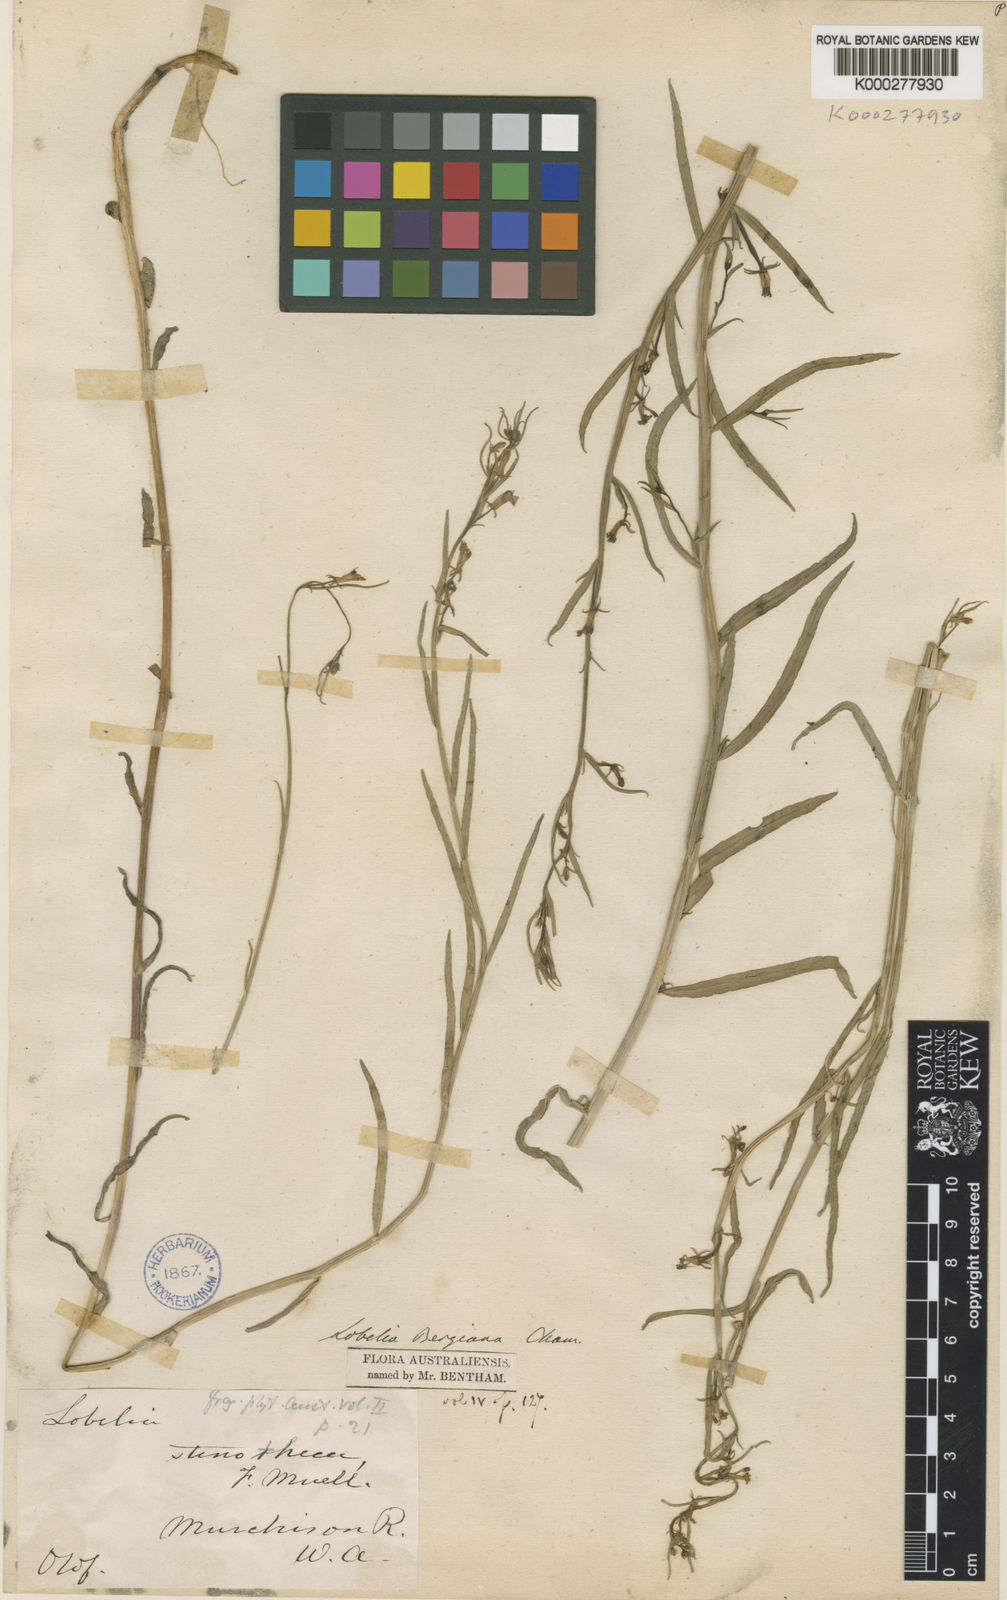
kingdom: Plantae
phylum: Tracheophyta
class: Magnoliopsida
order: Asterales
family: Campanulaceae
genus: Grammatotheca
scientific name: Grammatotheca bergiana
